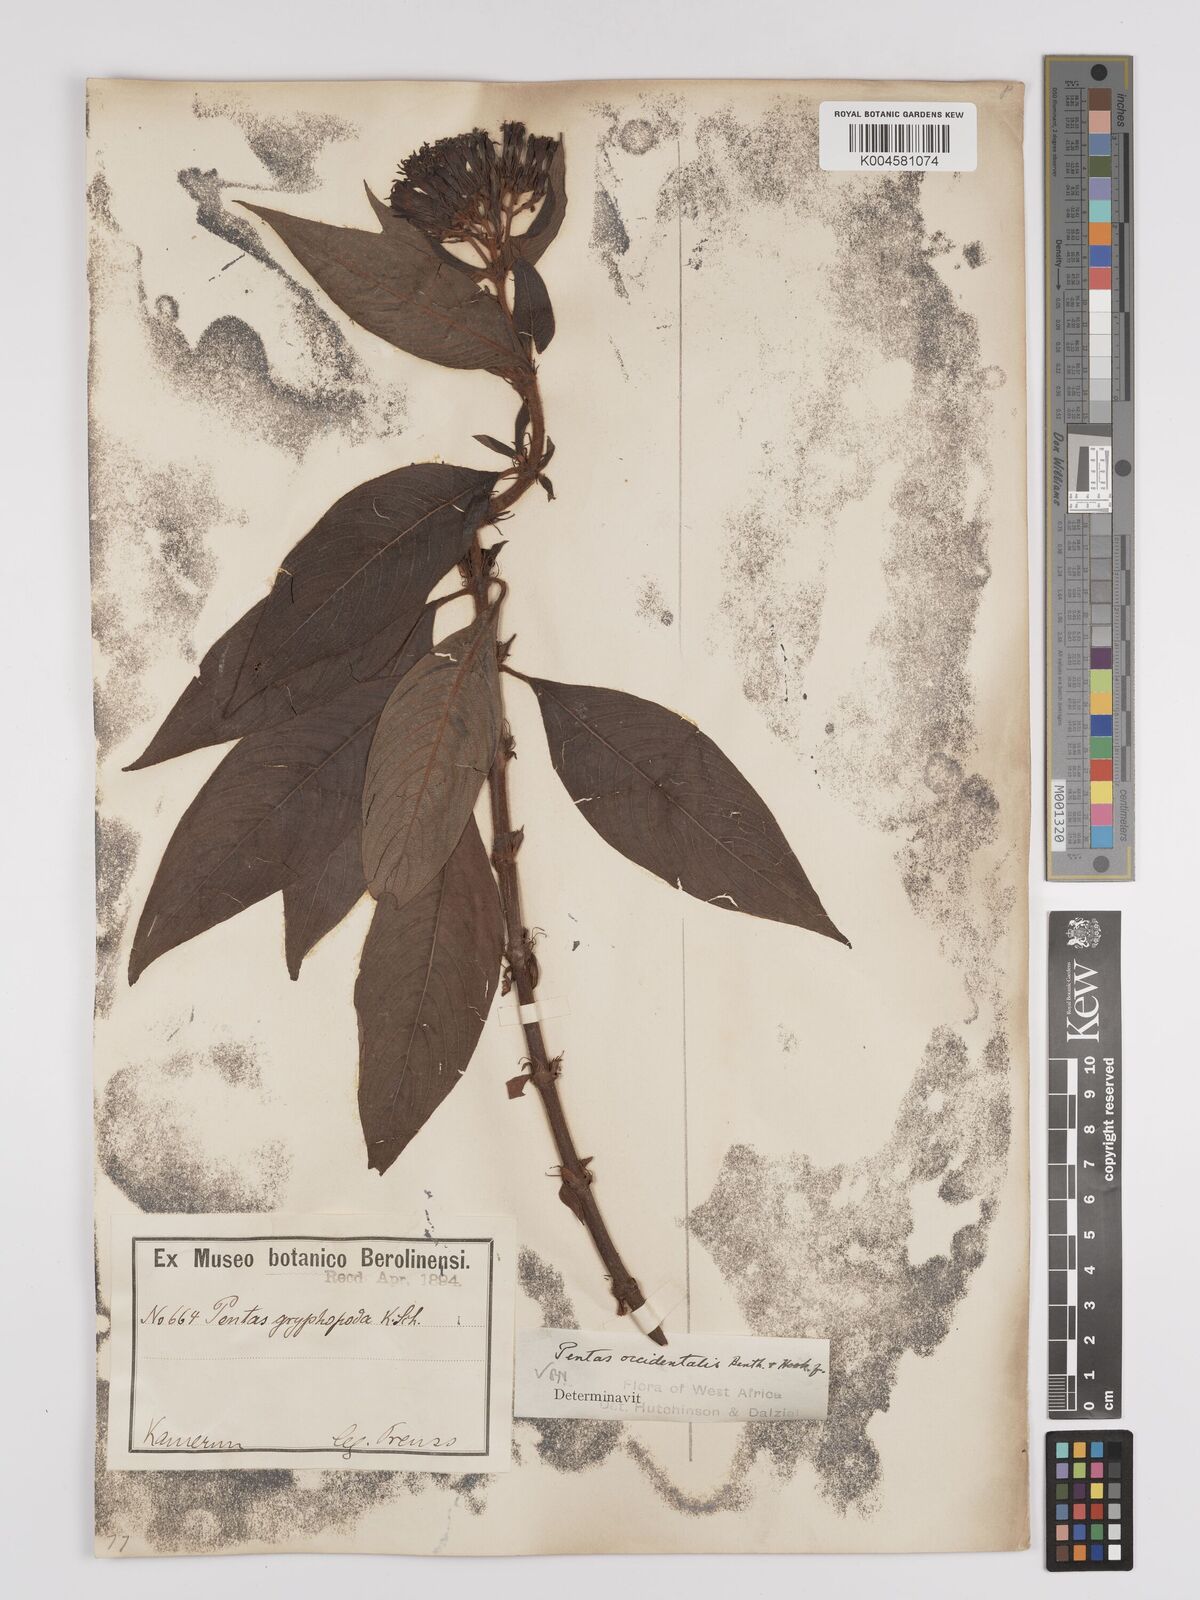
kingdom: Plantae
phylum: Tracheophyta
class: Magnoliopsida
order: Gentianales
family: Rubiaceae
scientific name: Rubiaceae
